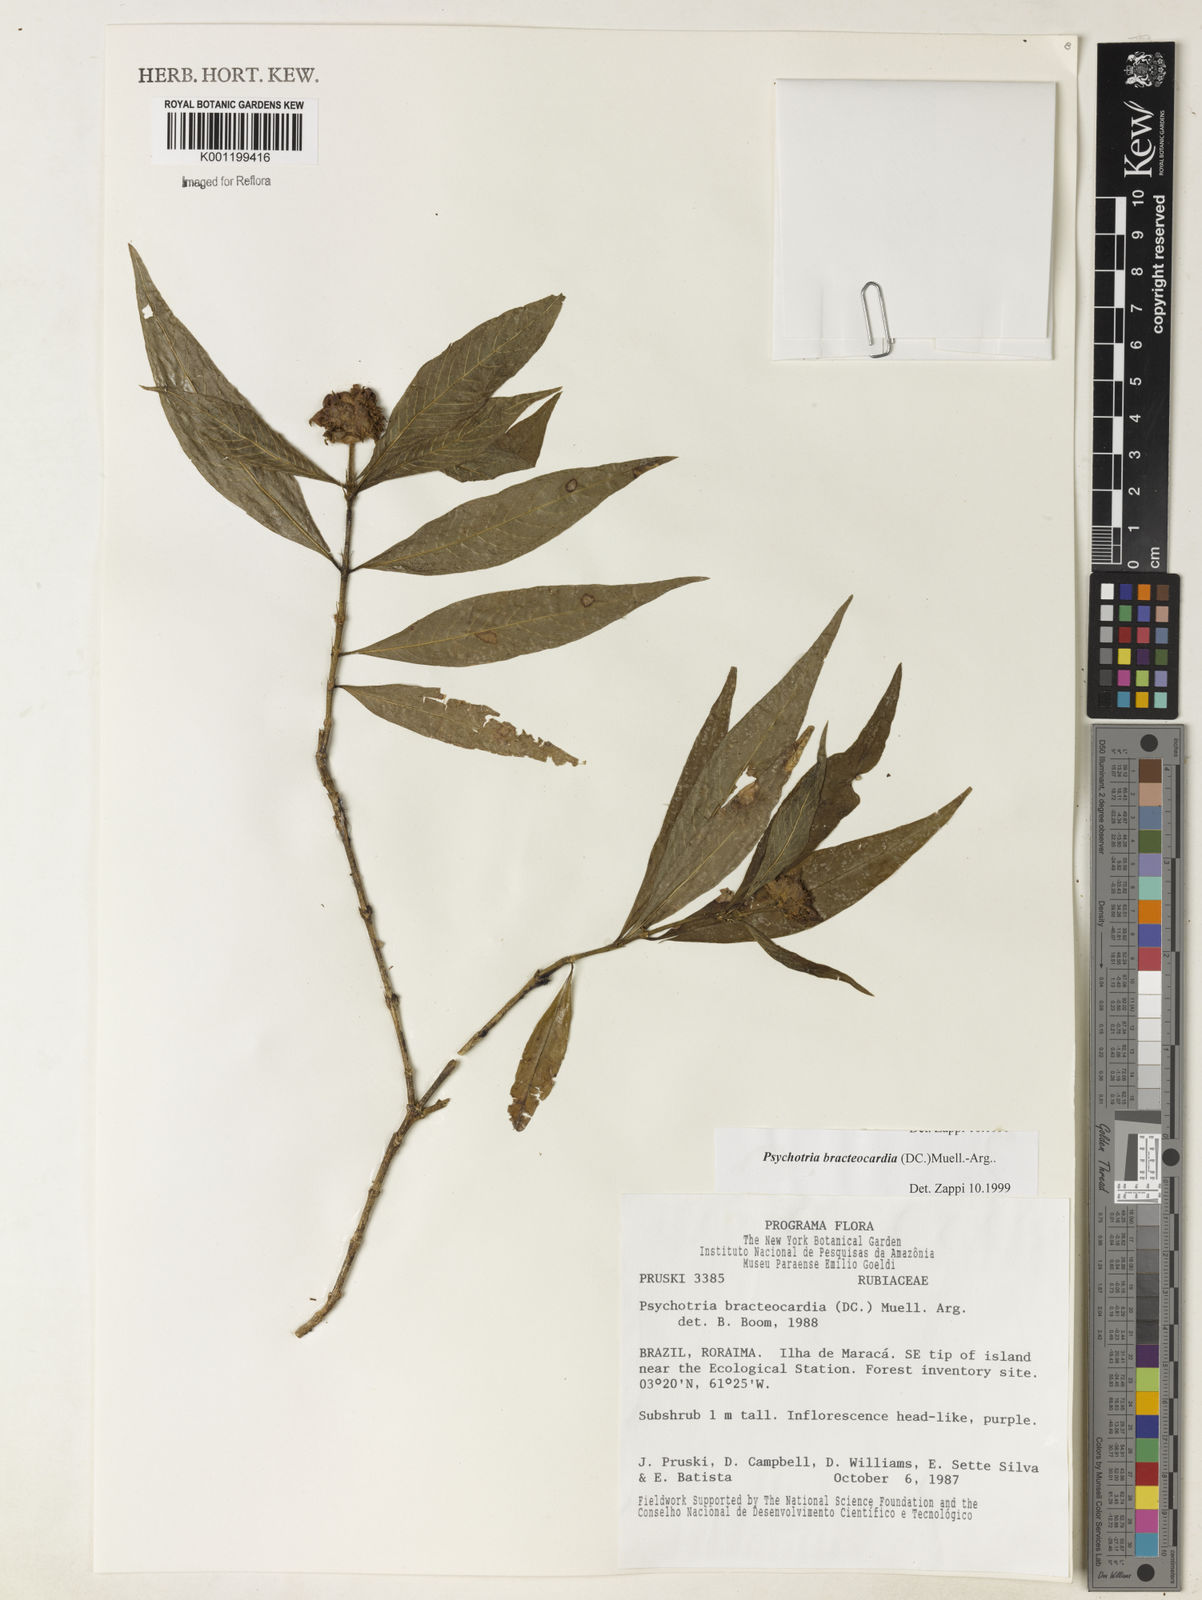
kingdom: Plantae
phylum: Tracheophyta
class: Magnoliopsida
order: Gentianales
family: Rubiaceae
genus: Psychotria
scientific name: Psychotria
